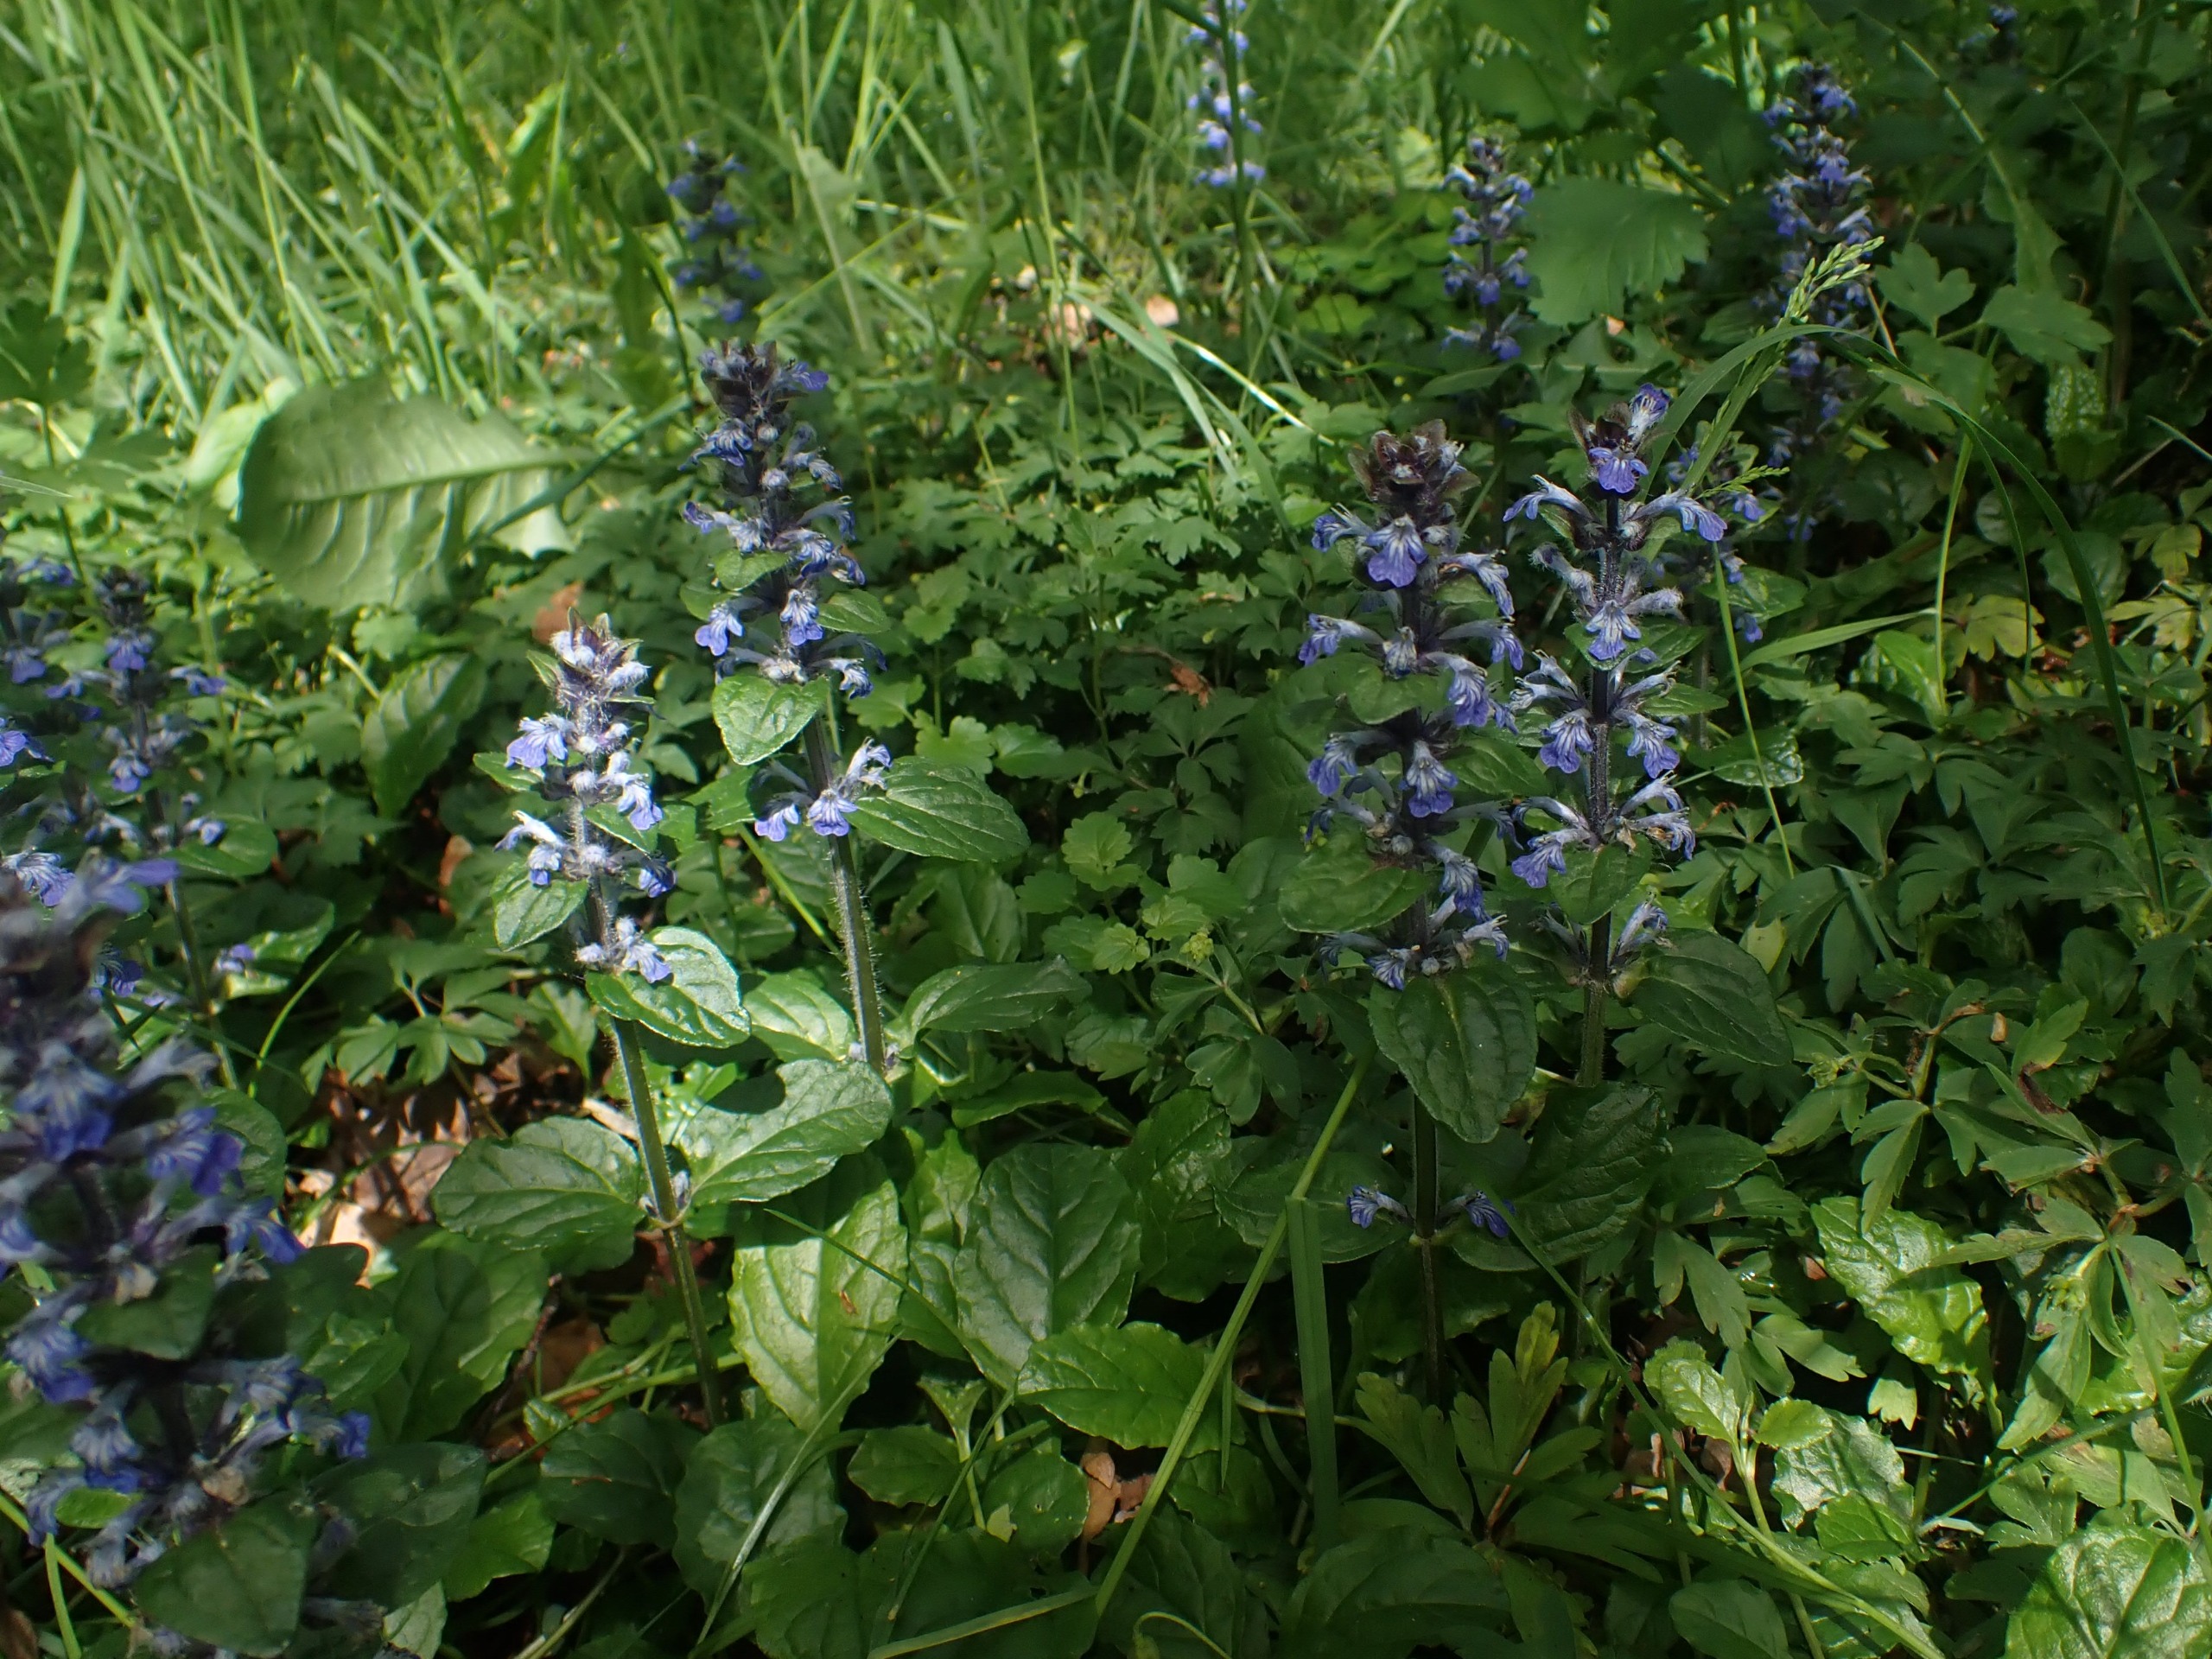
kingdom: Plantae
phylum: Tracheophyta
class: Magnoliopsida
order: Lamiales
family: Lamiaceae
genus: Ajuga
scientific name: Ajuga reptans
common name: Krybende læbeløs
